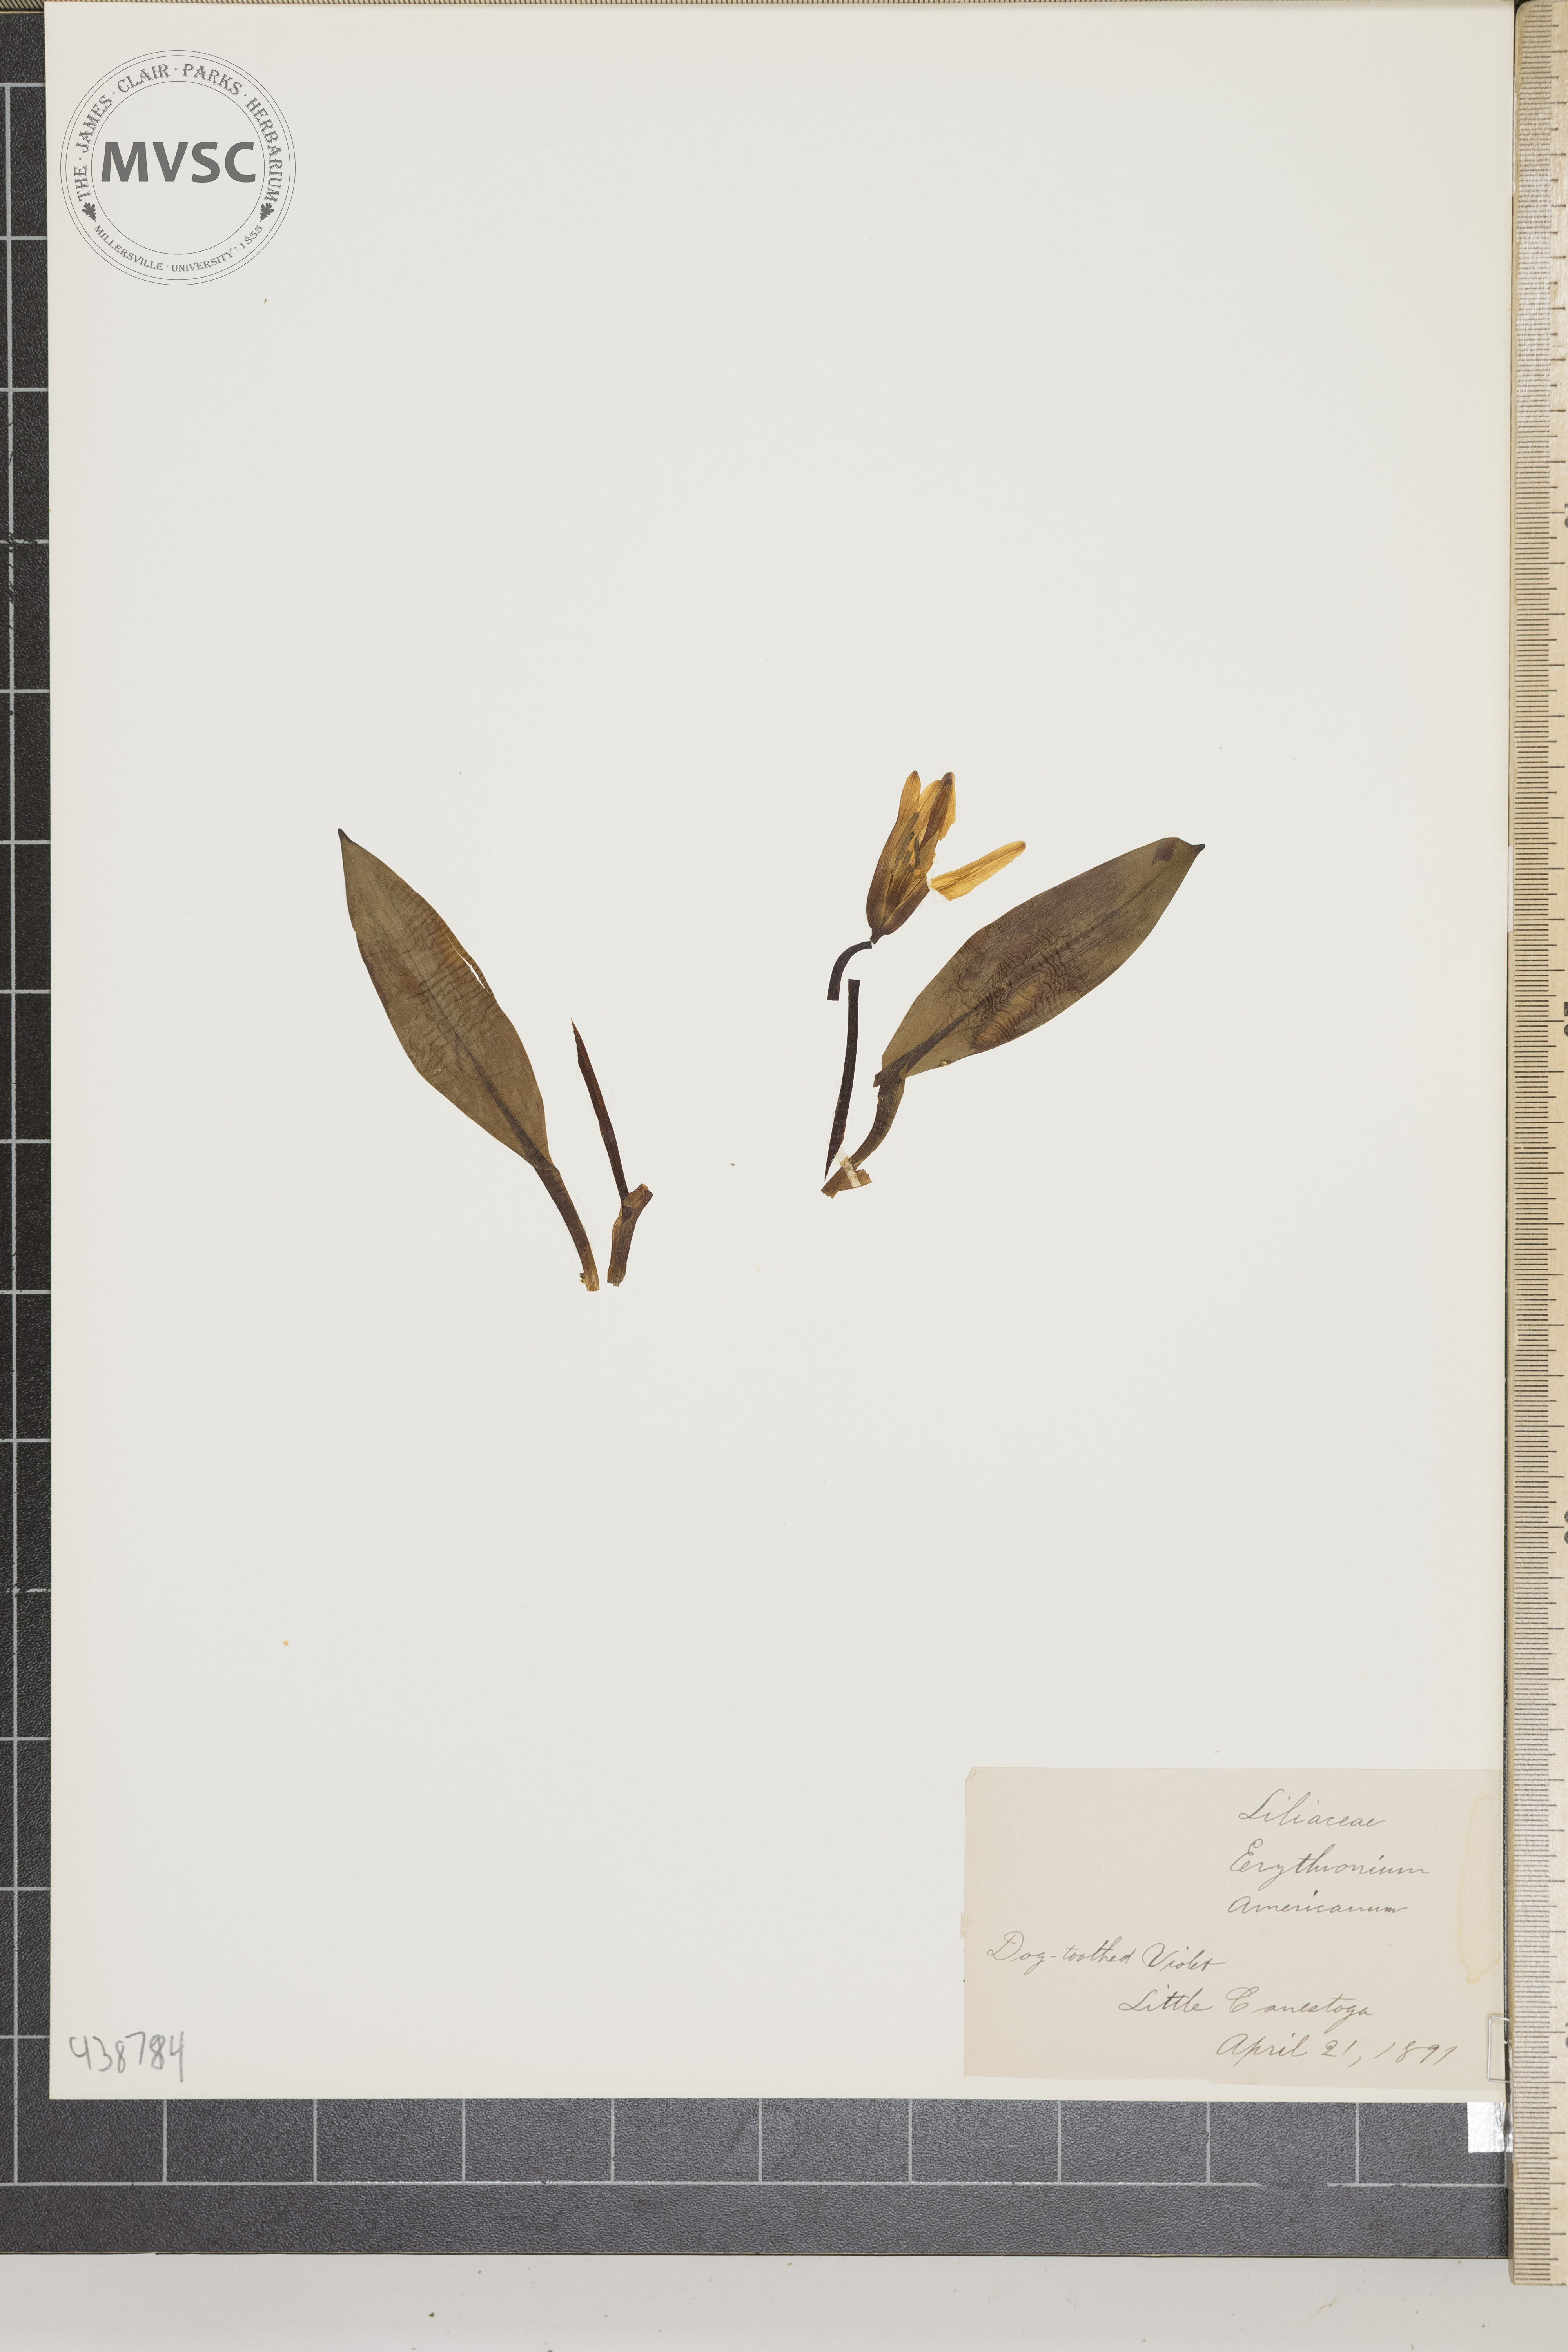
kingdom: Plantae
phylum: Tracheophyta
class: Liliopsida
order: Liliales
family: Liliaceae
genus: Erythronium
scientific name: Erythronium americanum
